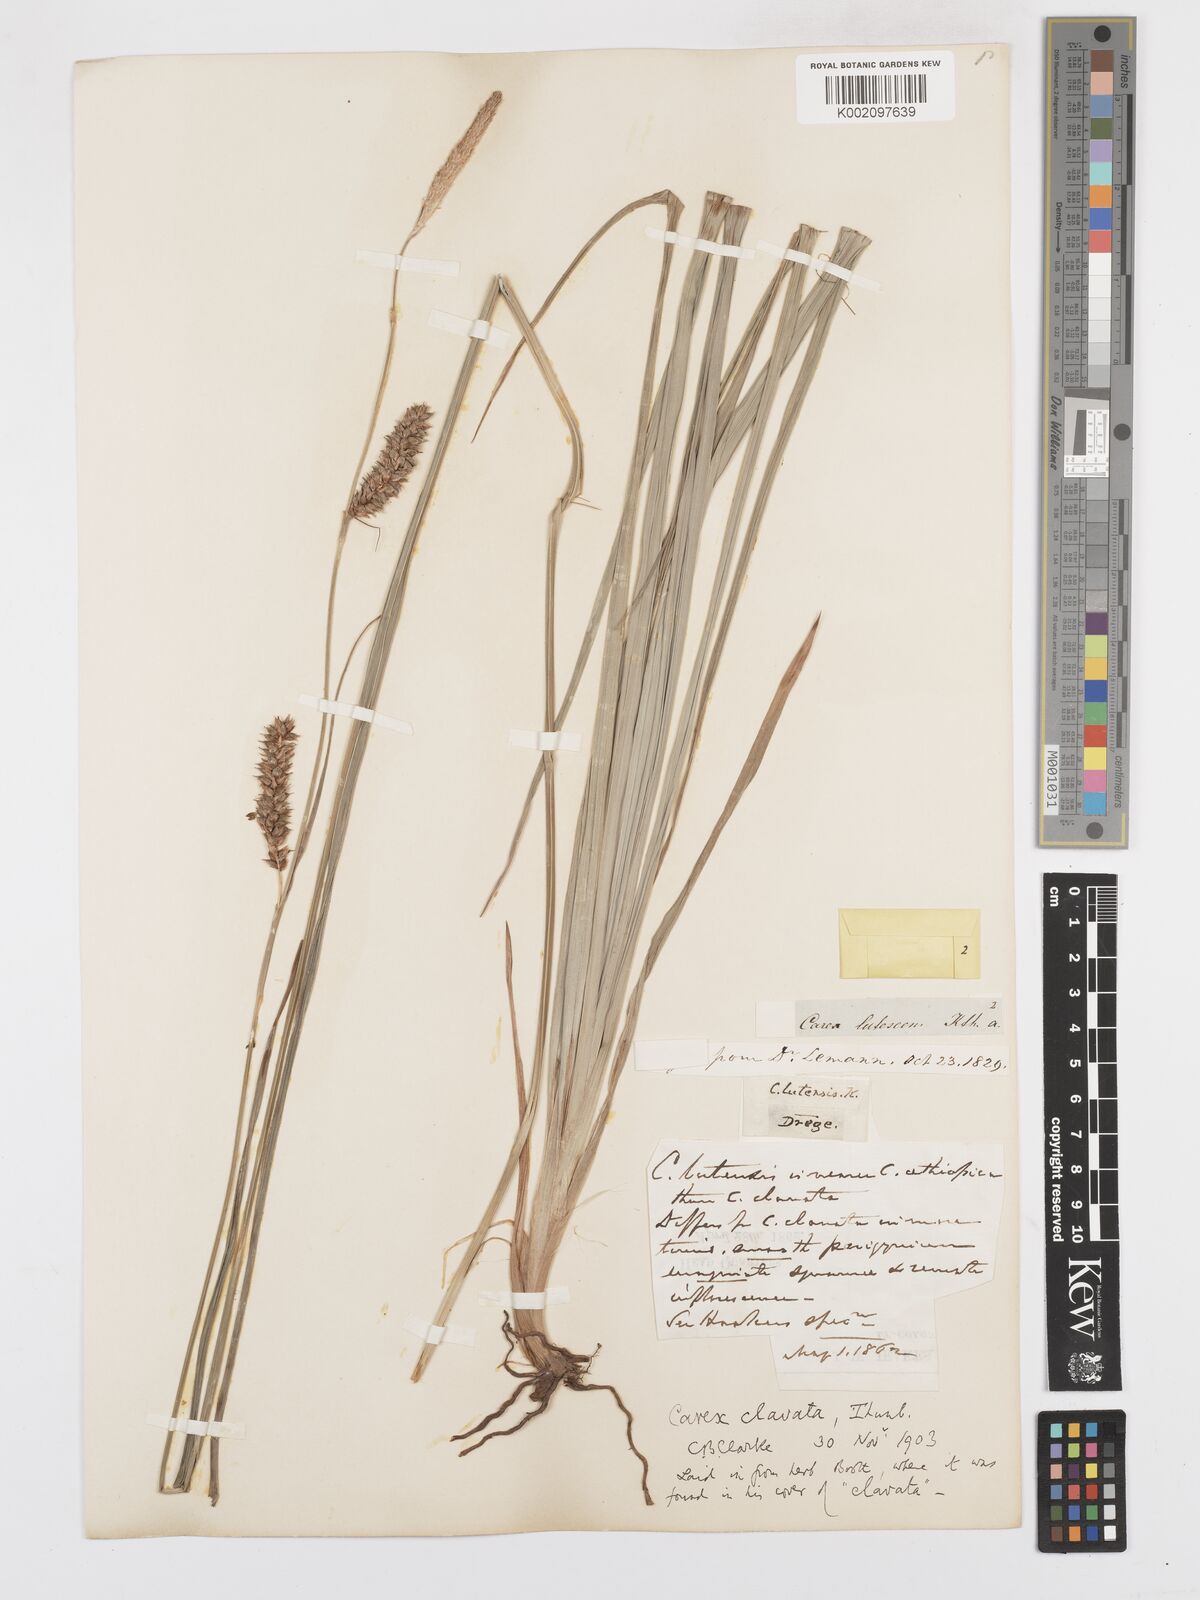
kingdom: Plantae
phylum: Tracheophyta
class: Liliopsida
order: Poales
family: Cyperaceae
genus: Carex
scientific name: Carex clavata
